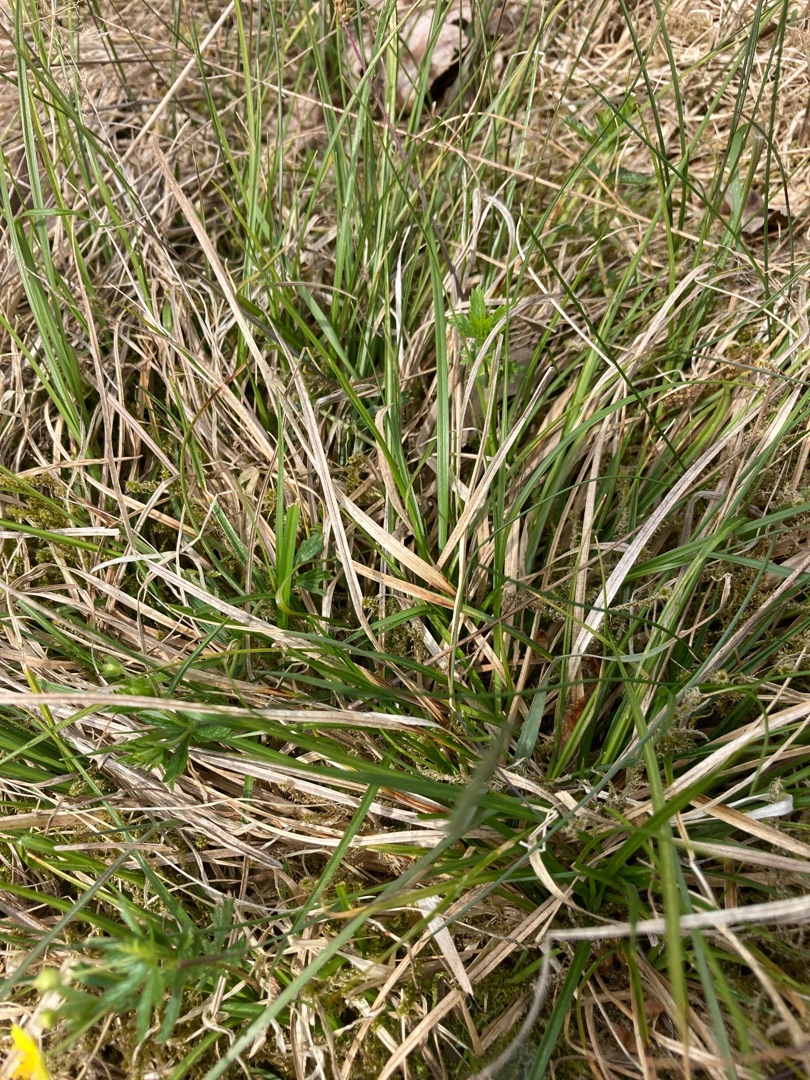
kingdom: Plantae
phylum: Tracheophyta
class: Liliopsida
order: Poales
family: Cyperaceae
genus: Carex
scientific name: Carex pilulifera
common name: Pille-star
